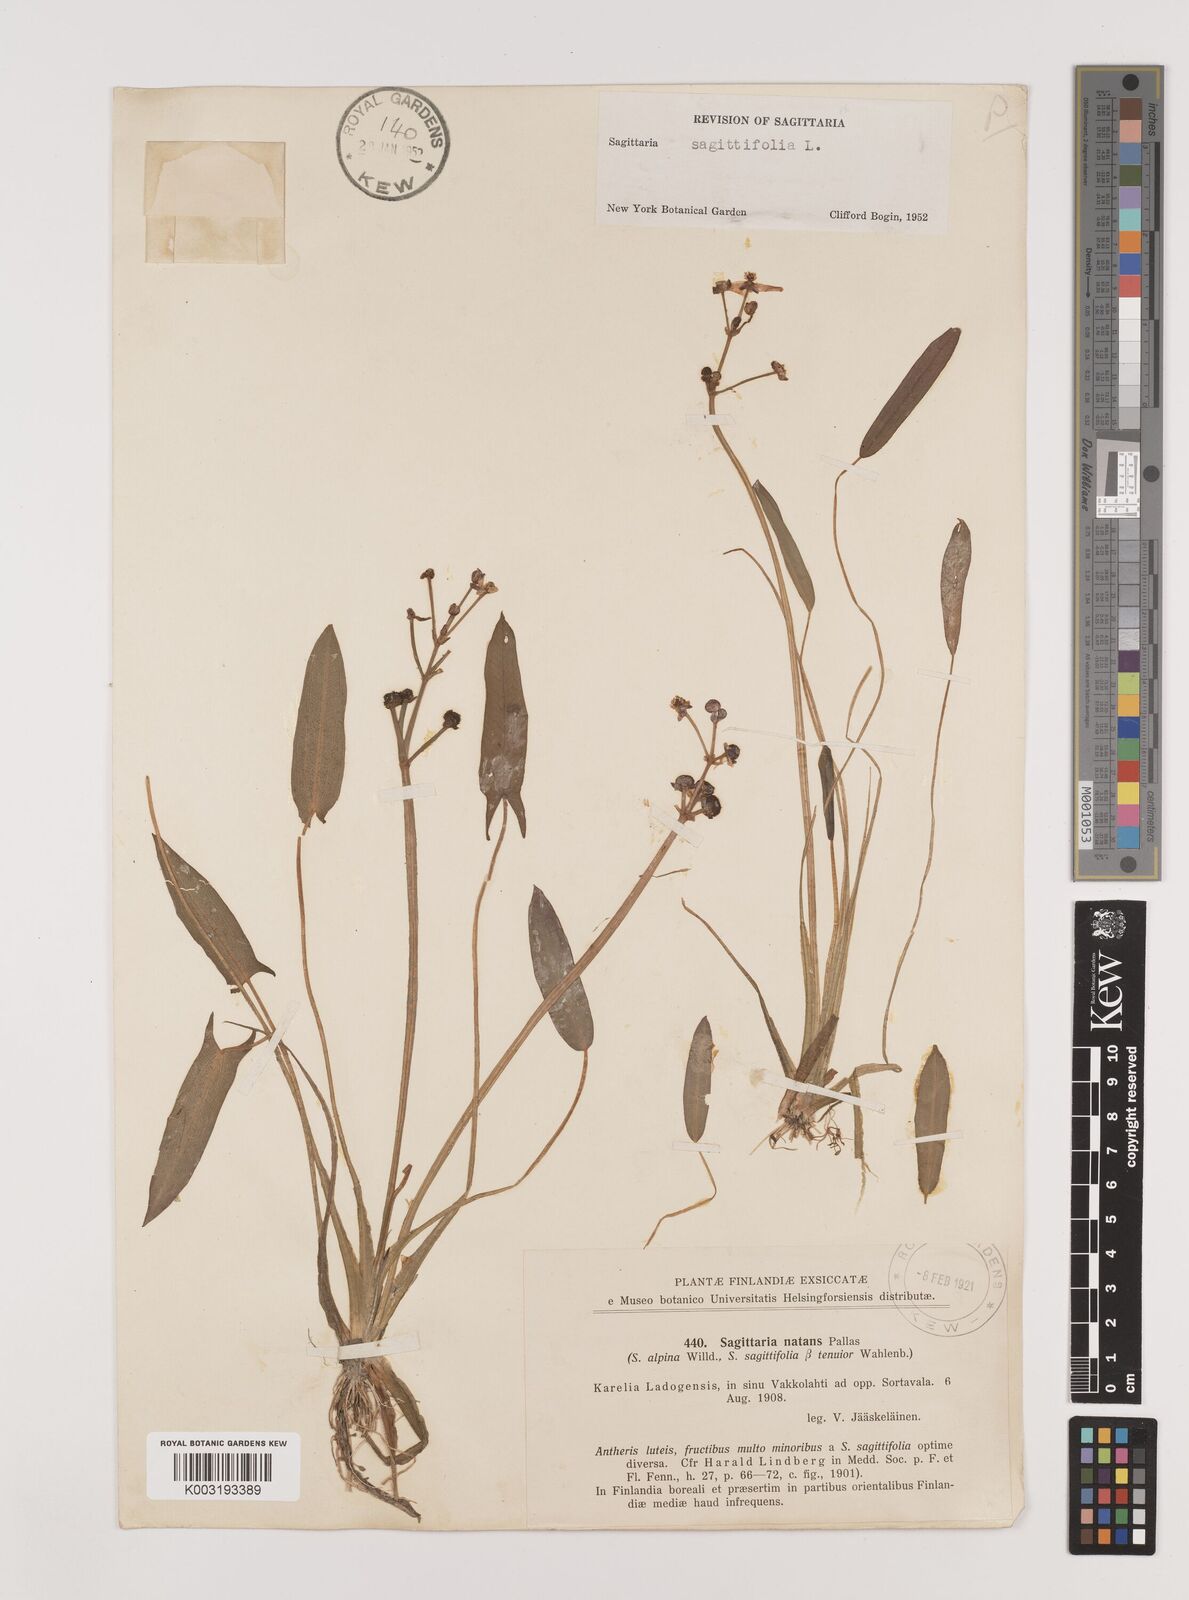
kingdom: Plantae
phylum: Tracheophyta
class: Liliopsida
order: Alismatales
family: Alismataceae
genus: Sagittaria
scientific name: Sagittaria sagittifolia
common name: Arrowhead
